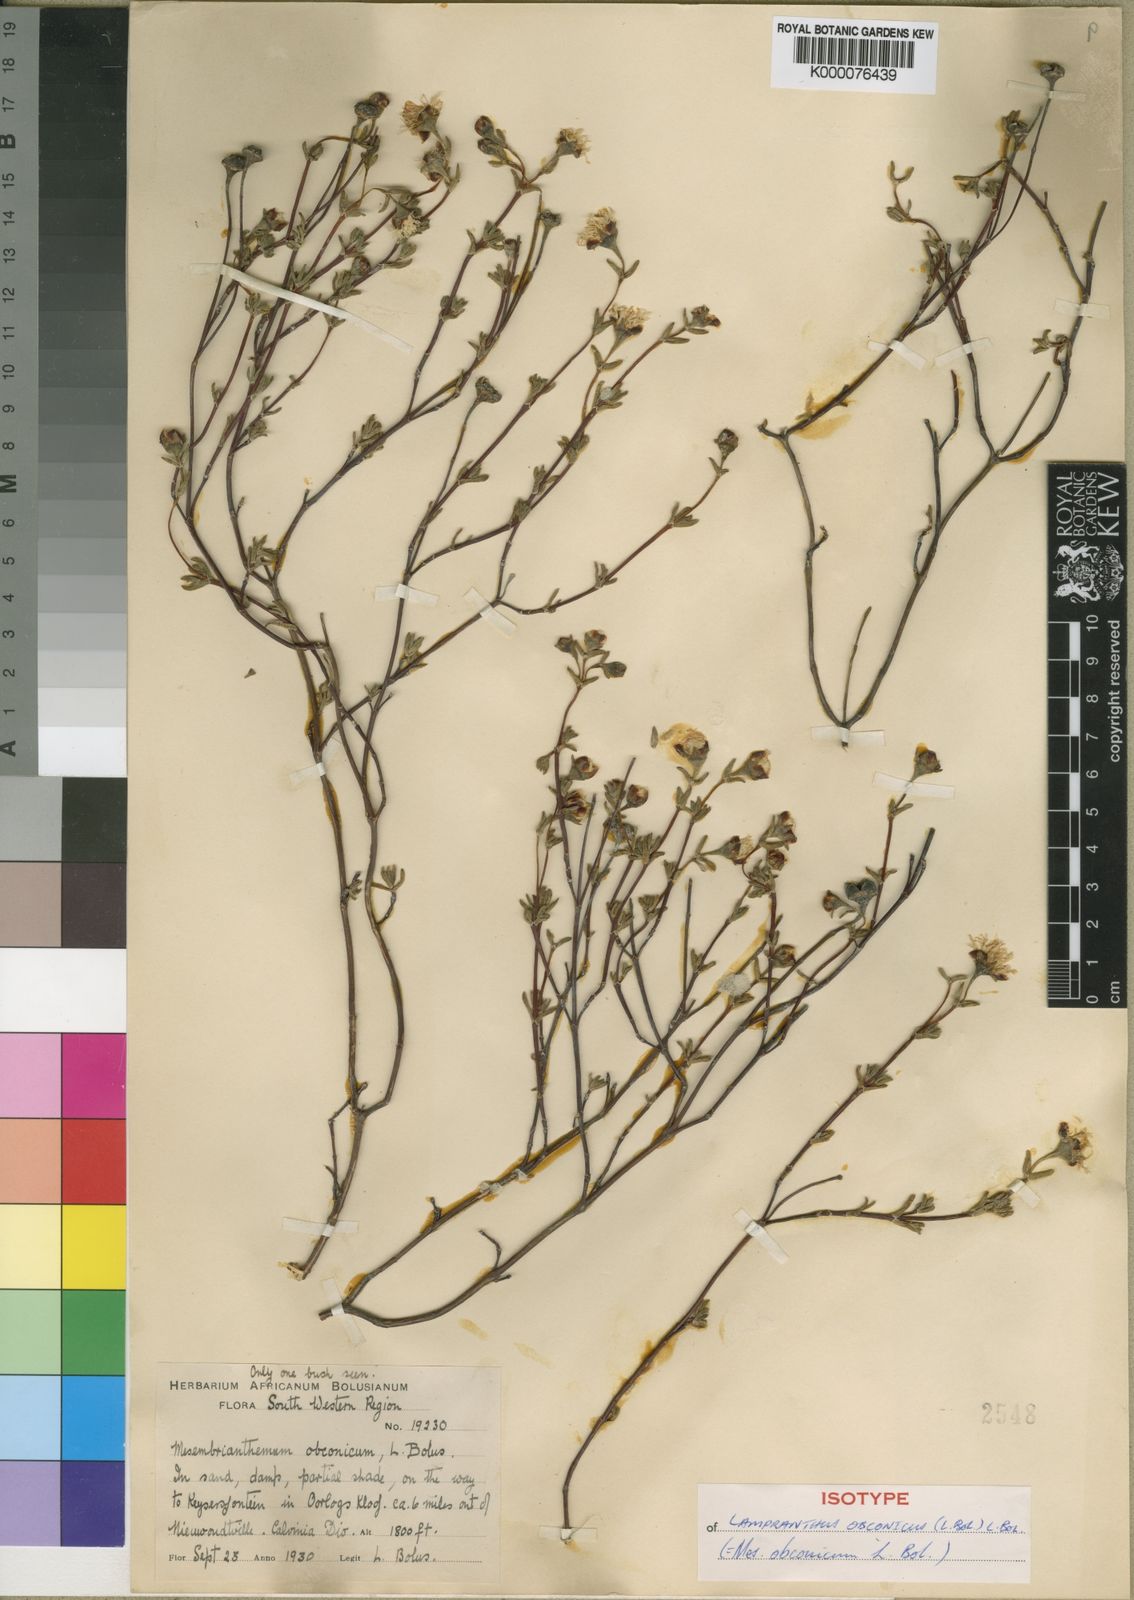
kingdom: Plantae
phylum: Tracheophyta
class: Magnoliopsida
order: Caryophyllales
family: Aizoaceae
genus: Lampranthus
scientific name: Lampranthus obconicus
